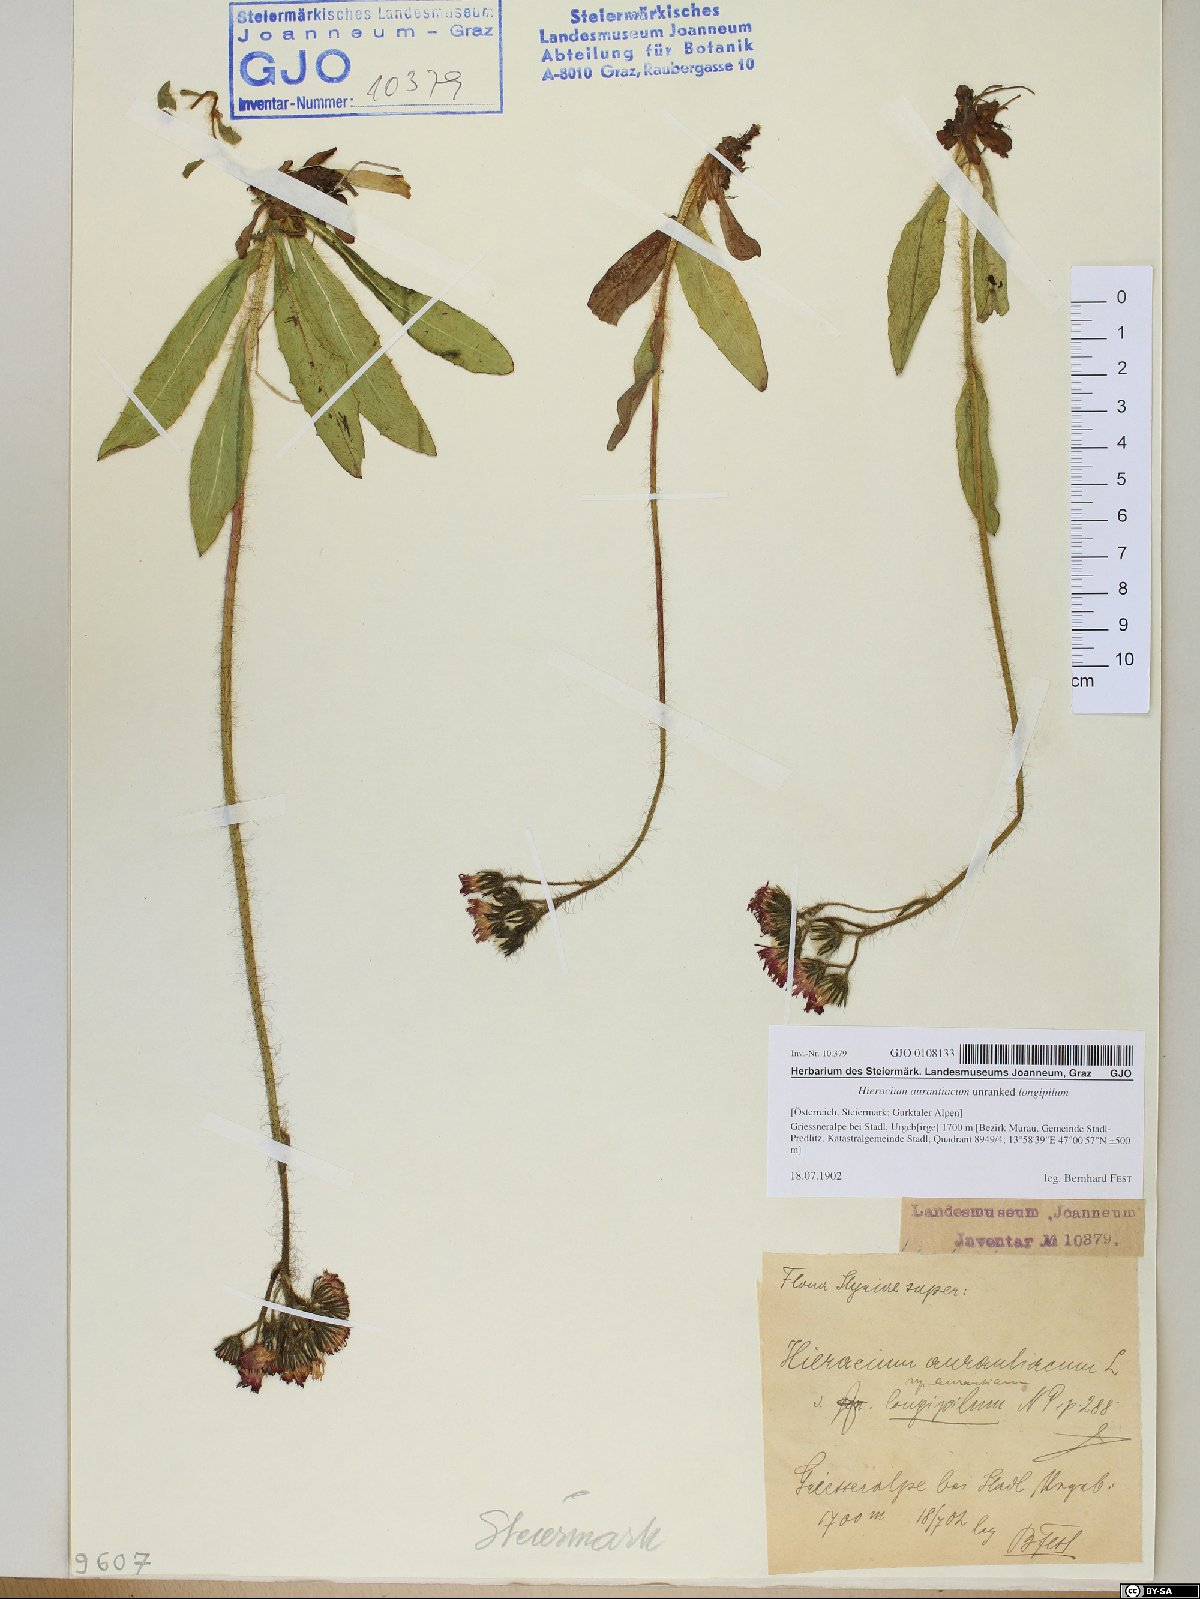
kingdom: Plantae
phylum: Tracheophyta
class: Magnoliopsida
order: Asterales
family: Asteraceae
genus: Pilosella
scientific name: Pilosella aurantiaca
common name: Fox-and-cubs
